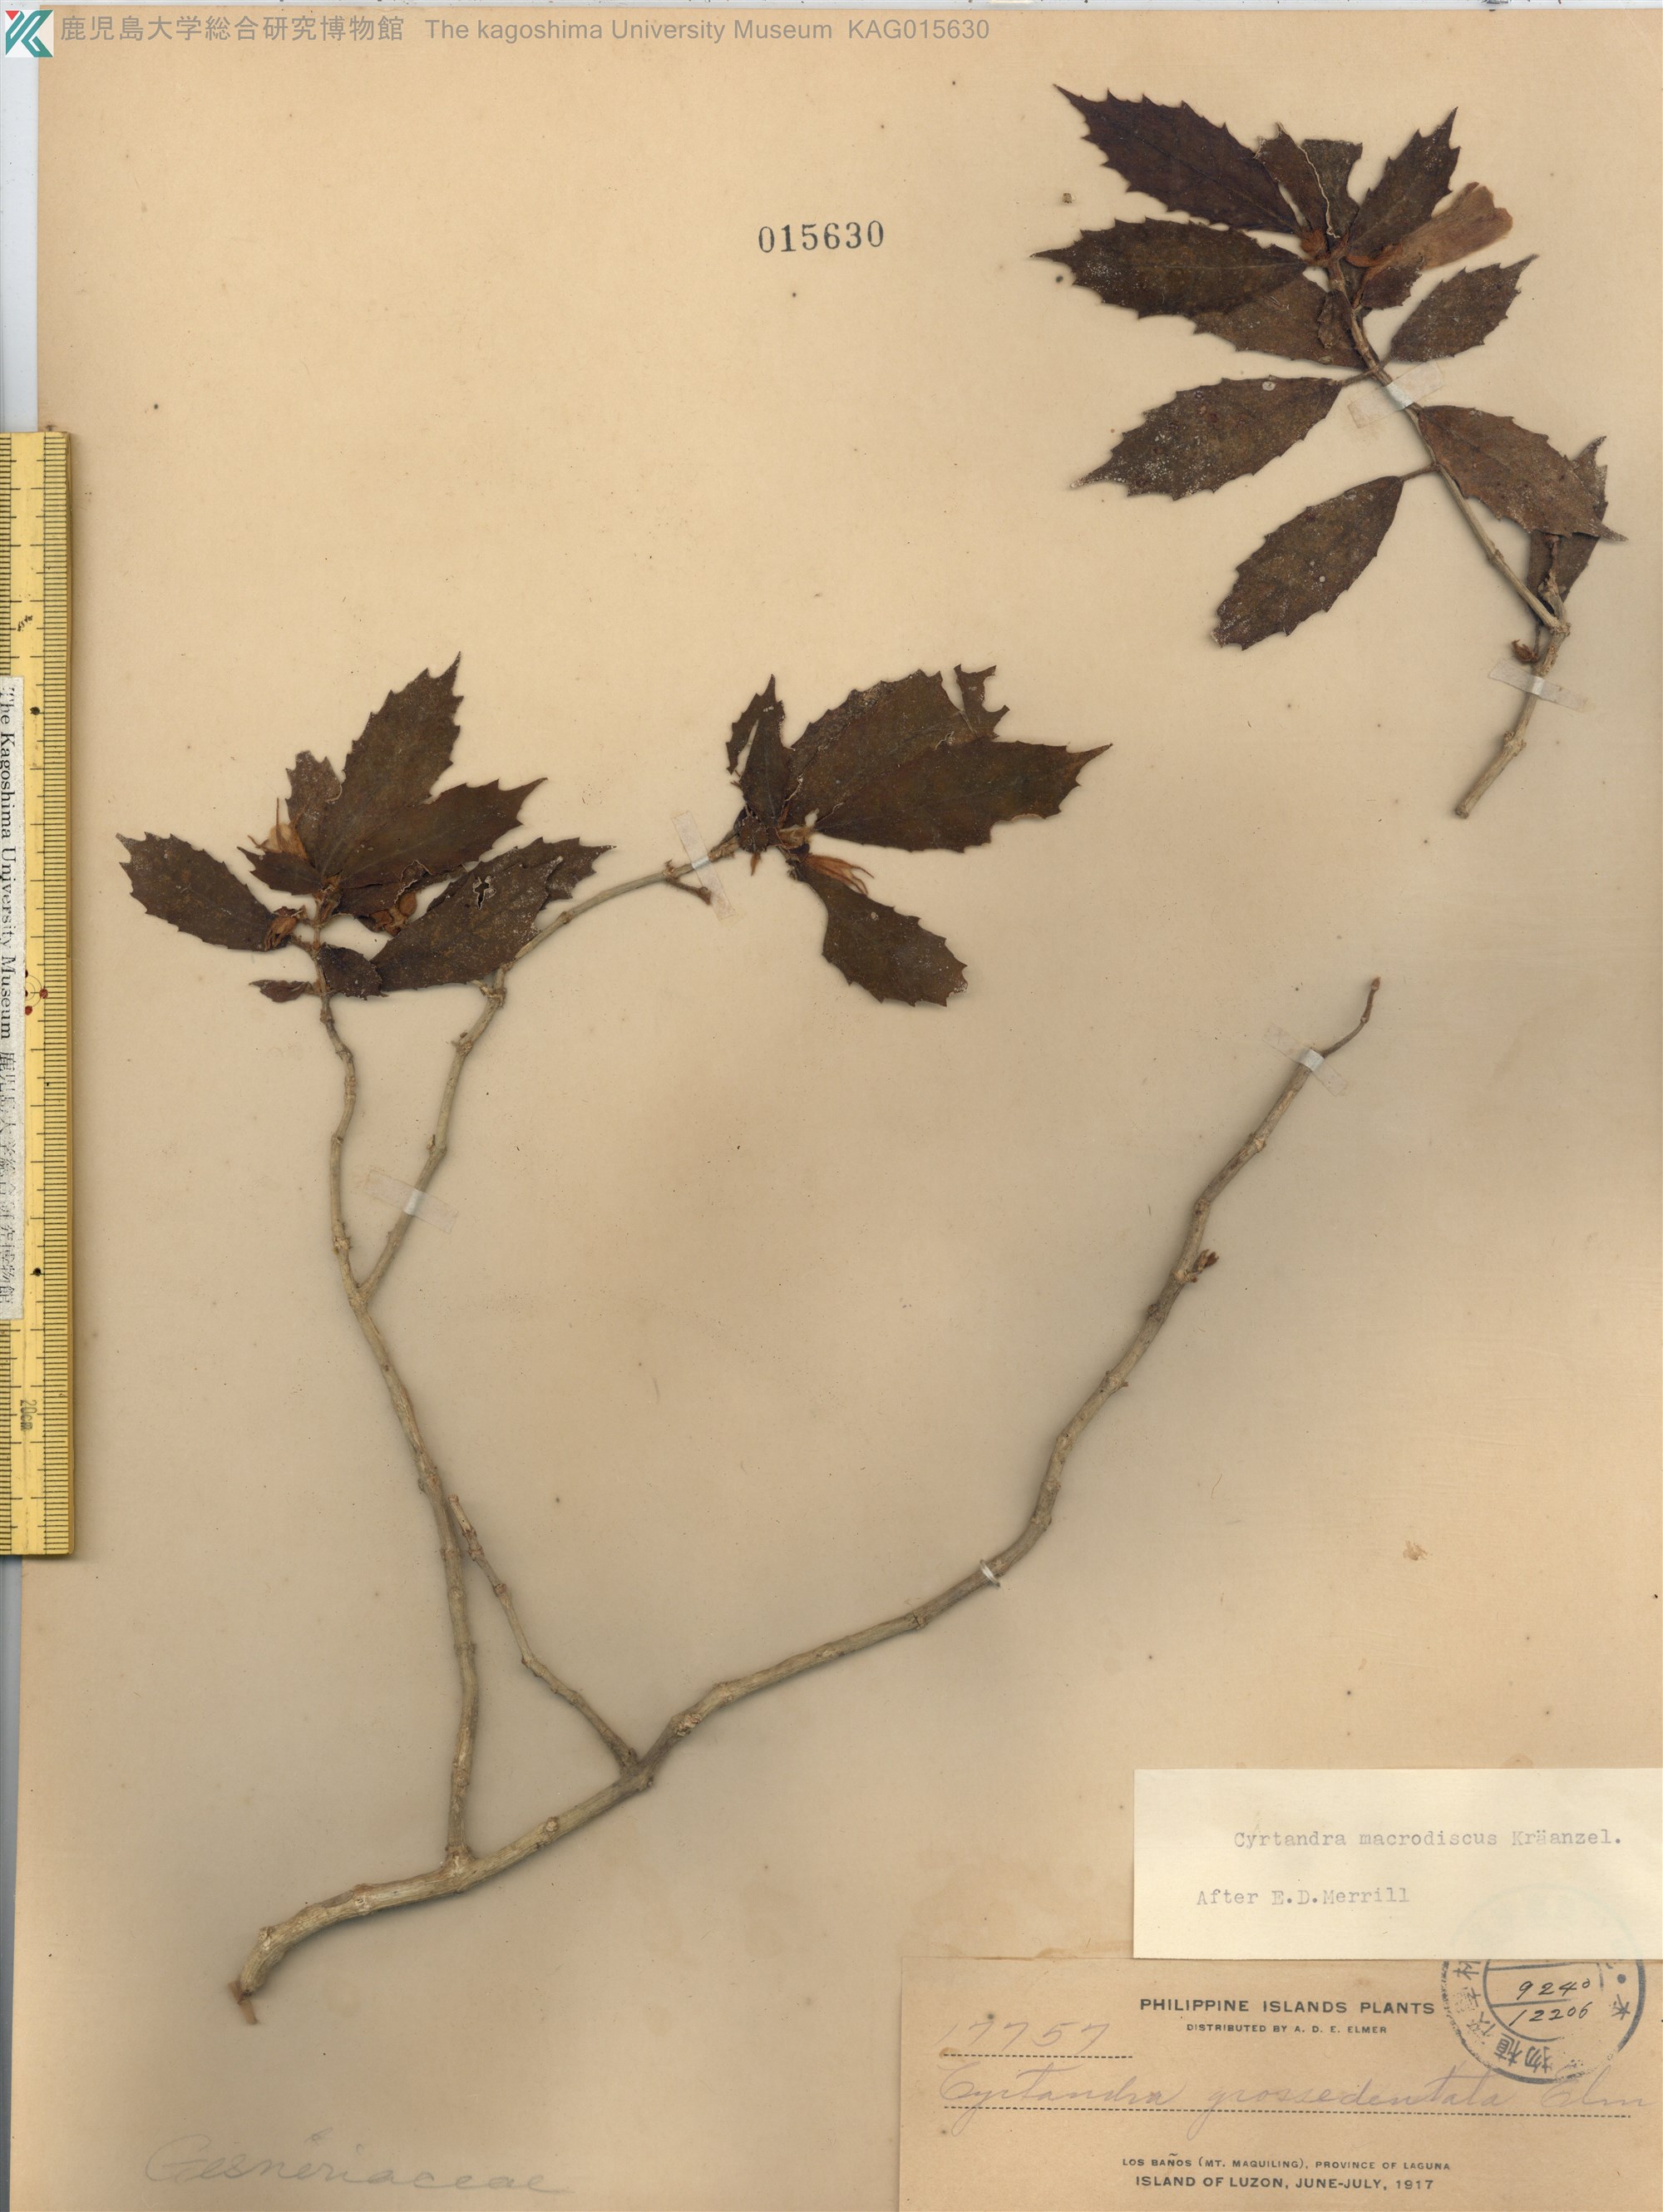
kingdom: Plantae
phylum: Tracheophyta
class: Magnoliopsida
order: Lamiales
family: Gesneriaceae
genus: Cyrtandra
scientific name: Cyrtandra macrodiscus
